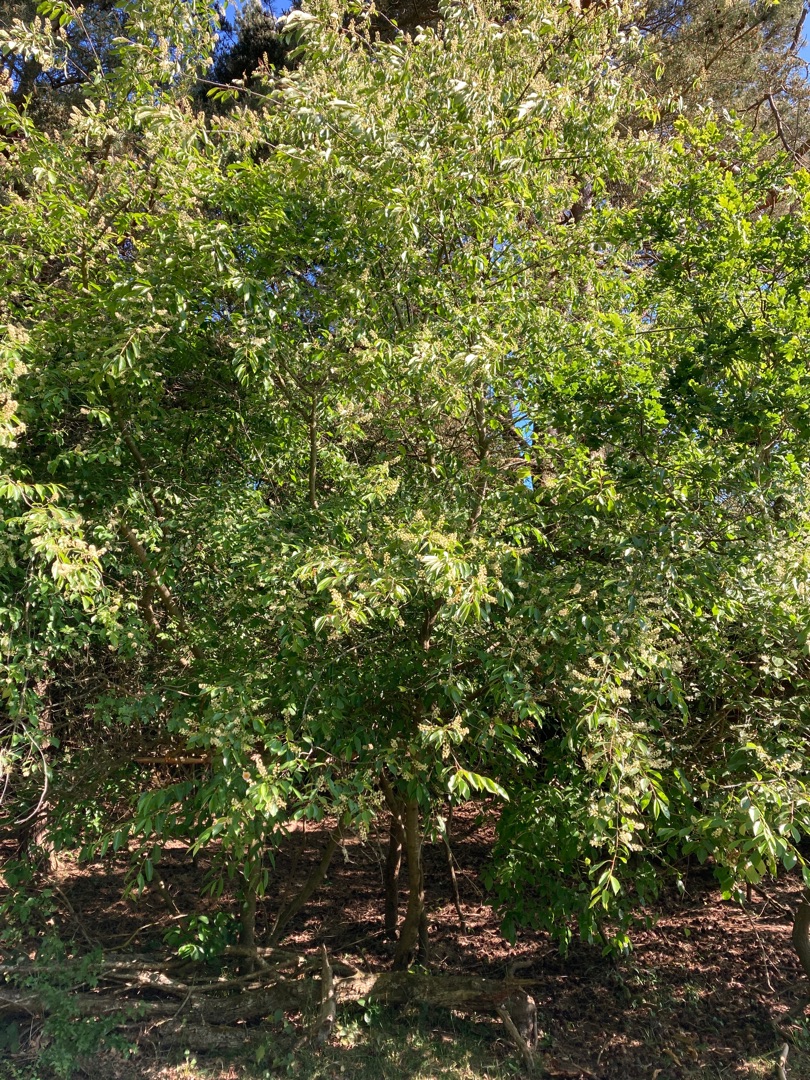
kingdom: Plantae
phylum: Tracheophyta
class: Magnoliopsida
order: Rosales
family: Rosaceae
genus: Prunus
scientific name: Prunus serotina
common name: Glansbladet hæg
